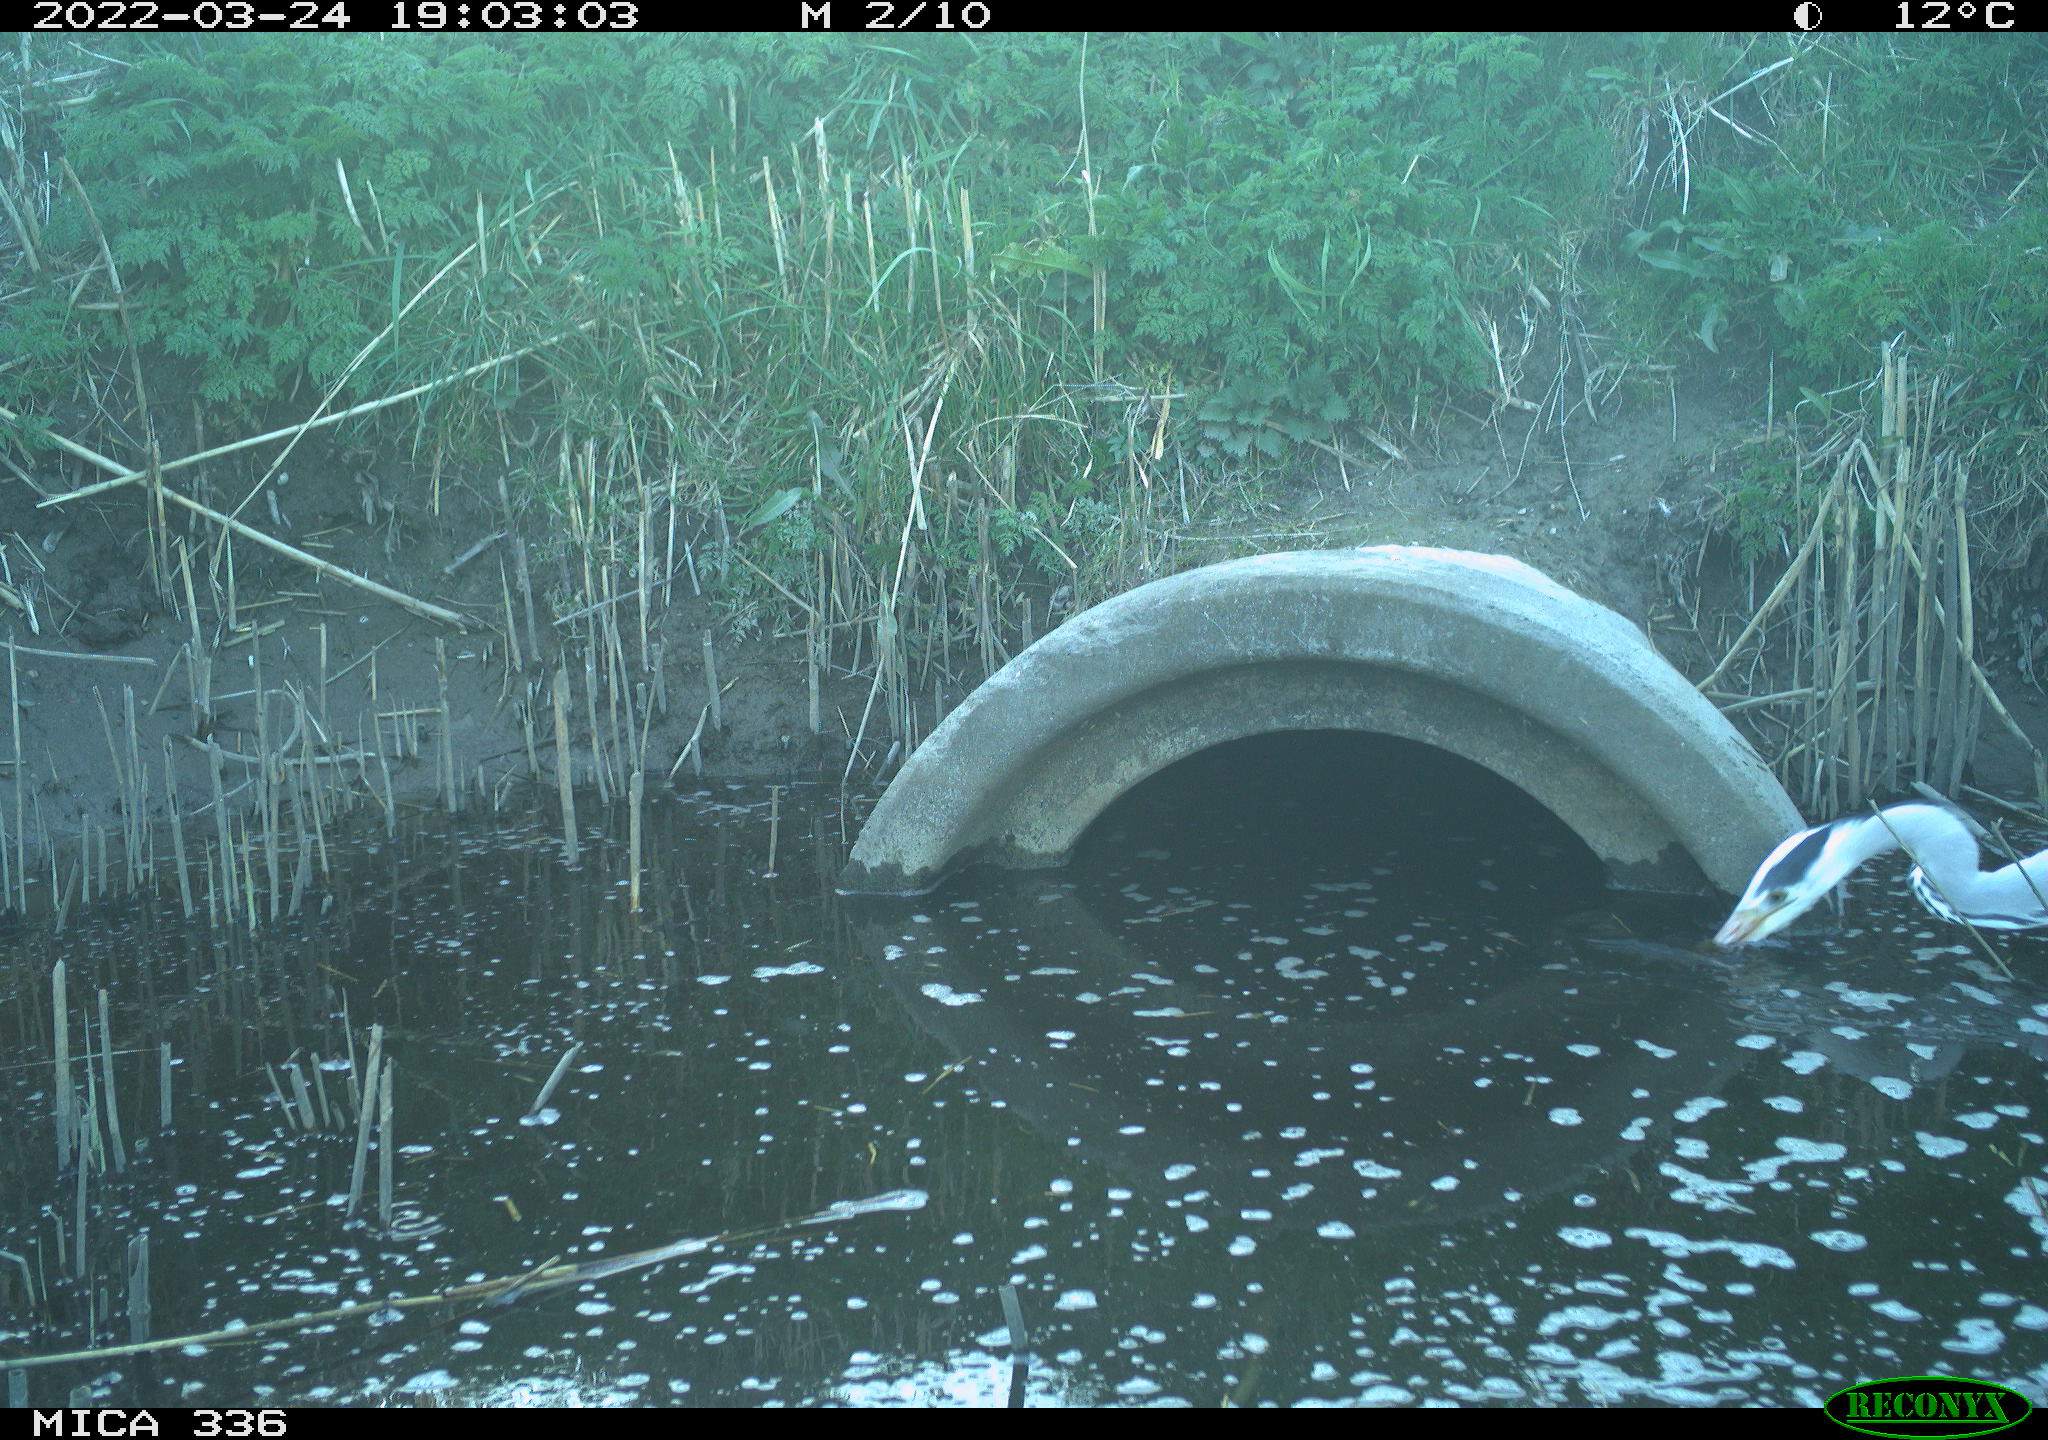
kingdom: Animalia
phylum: Chordata
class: Aves
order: Pelecaniformes
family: Ardeidae
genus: Ardea
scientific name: Ardea cinerea
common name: Grey heron
